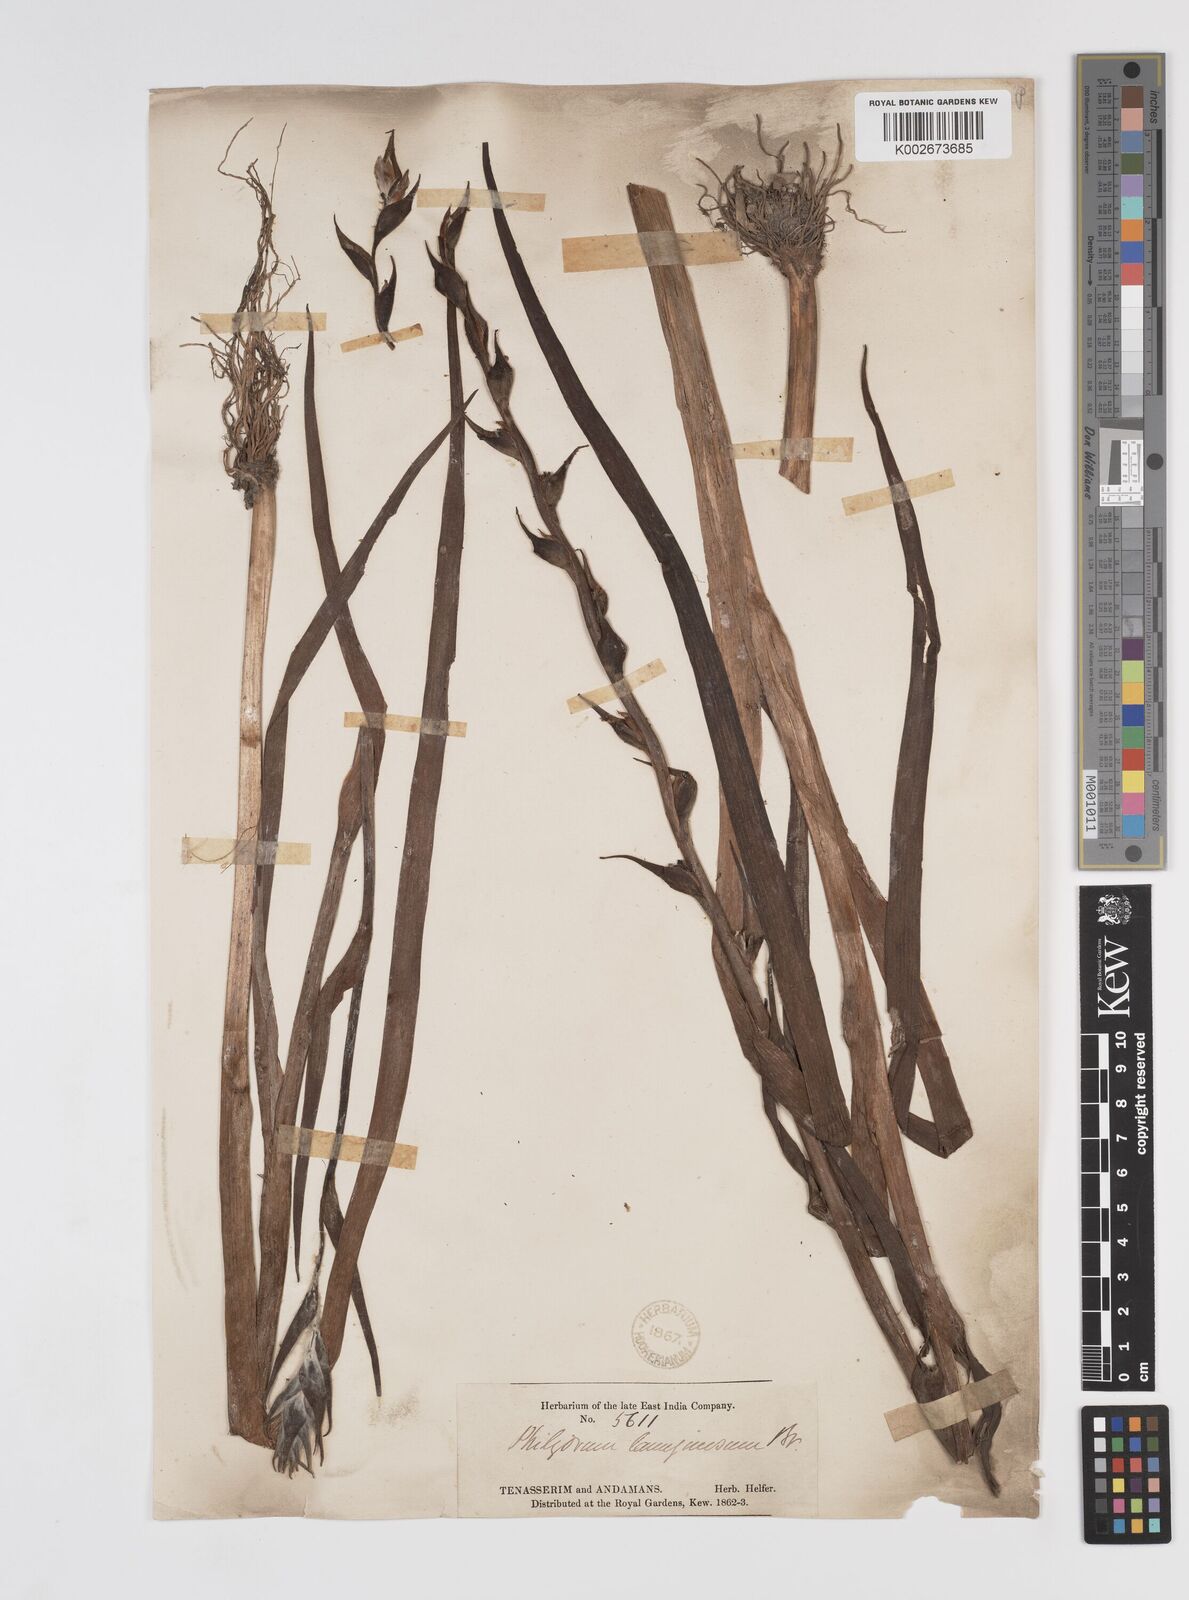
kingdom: Plantae
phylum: Tracheophyta
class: Liliopsida
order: Commelinales
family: Philydraceae
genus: Philydrum
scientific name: Philydrum lanuginosum
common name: Woolly frog's mouth
